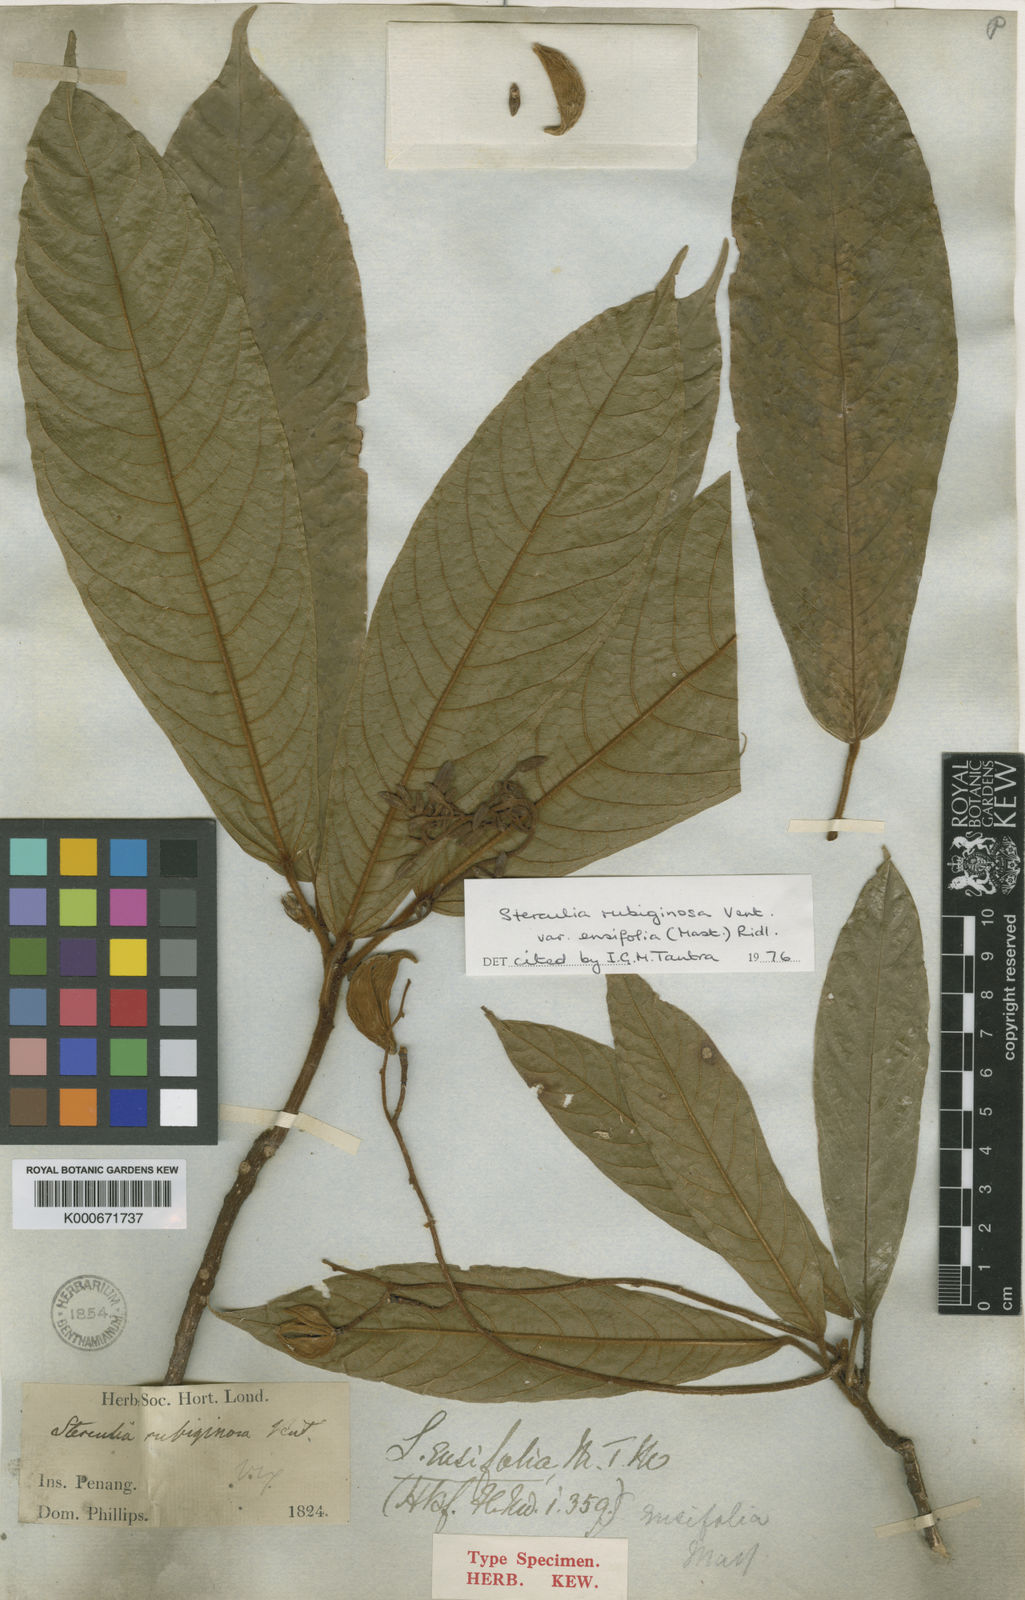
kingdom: Plantae
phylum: Tracheophyta
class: Magnoliopsida
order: Malvales
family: Malvaceae
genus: Sterculia
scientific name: Sterculia rubiginosa
